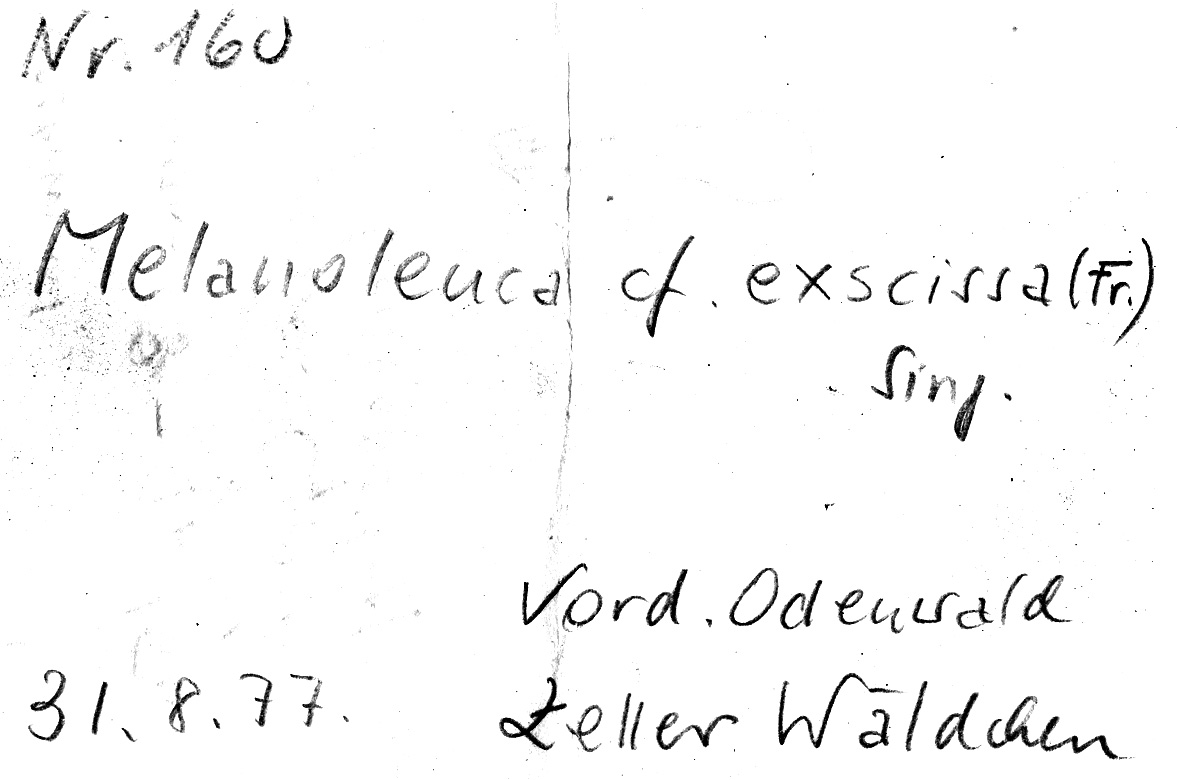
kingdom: Fungi
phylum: Basidiomycota
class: Agaricomycetes
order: Agaricales
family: Tricholomataceae
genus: Melanoleuca
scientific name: Melanoleuca exscissa
